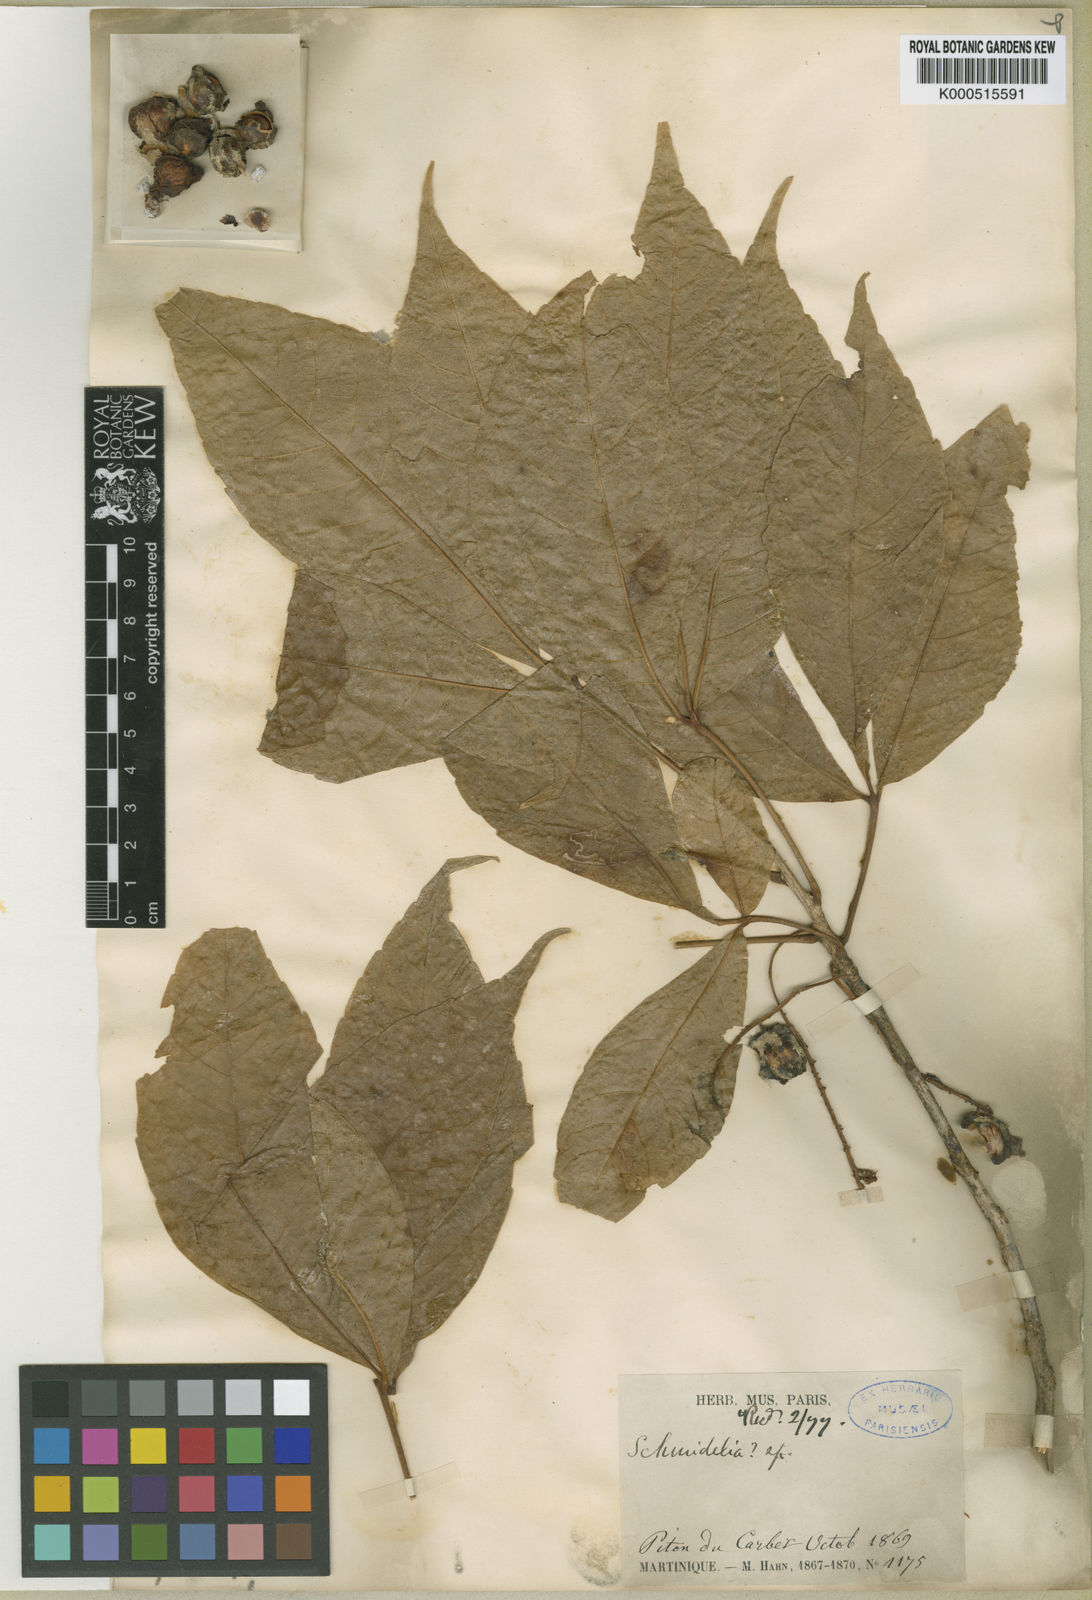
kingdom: Plantae
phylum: Tracheophyta
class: Magnoliopsida
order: Sapindales
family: Sapindaceae
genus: Allophylus
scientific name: Allophylus psilospermus
